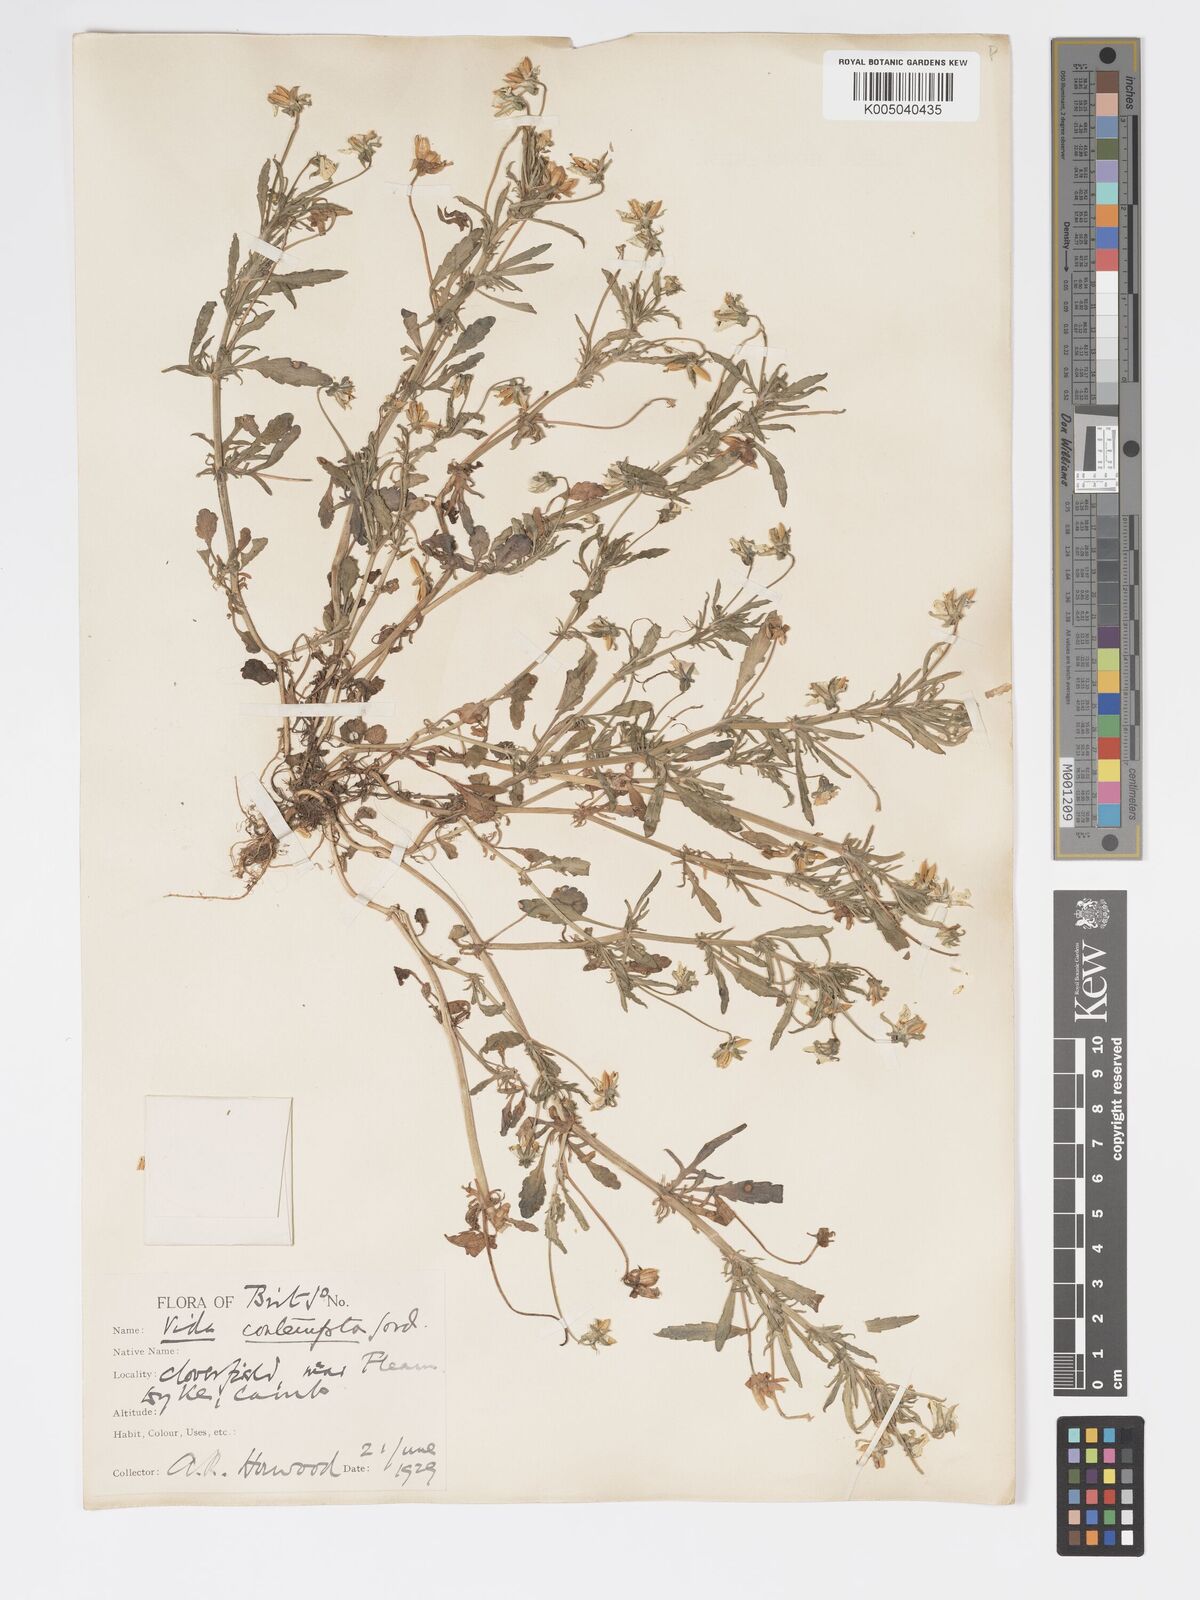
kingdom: Plantae
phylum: Tracheophyta
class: Magnoliopsida
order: Malpighiales
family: Violaceae
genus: Viola
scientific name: Viola arvensis
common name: Field pansy
